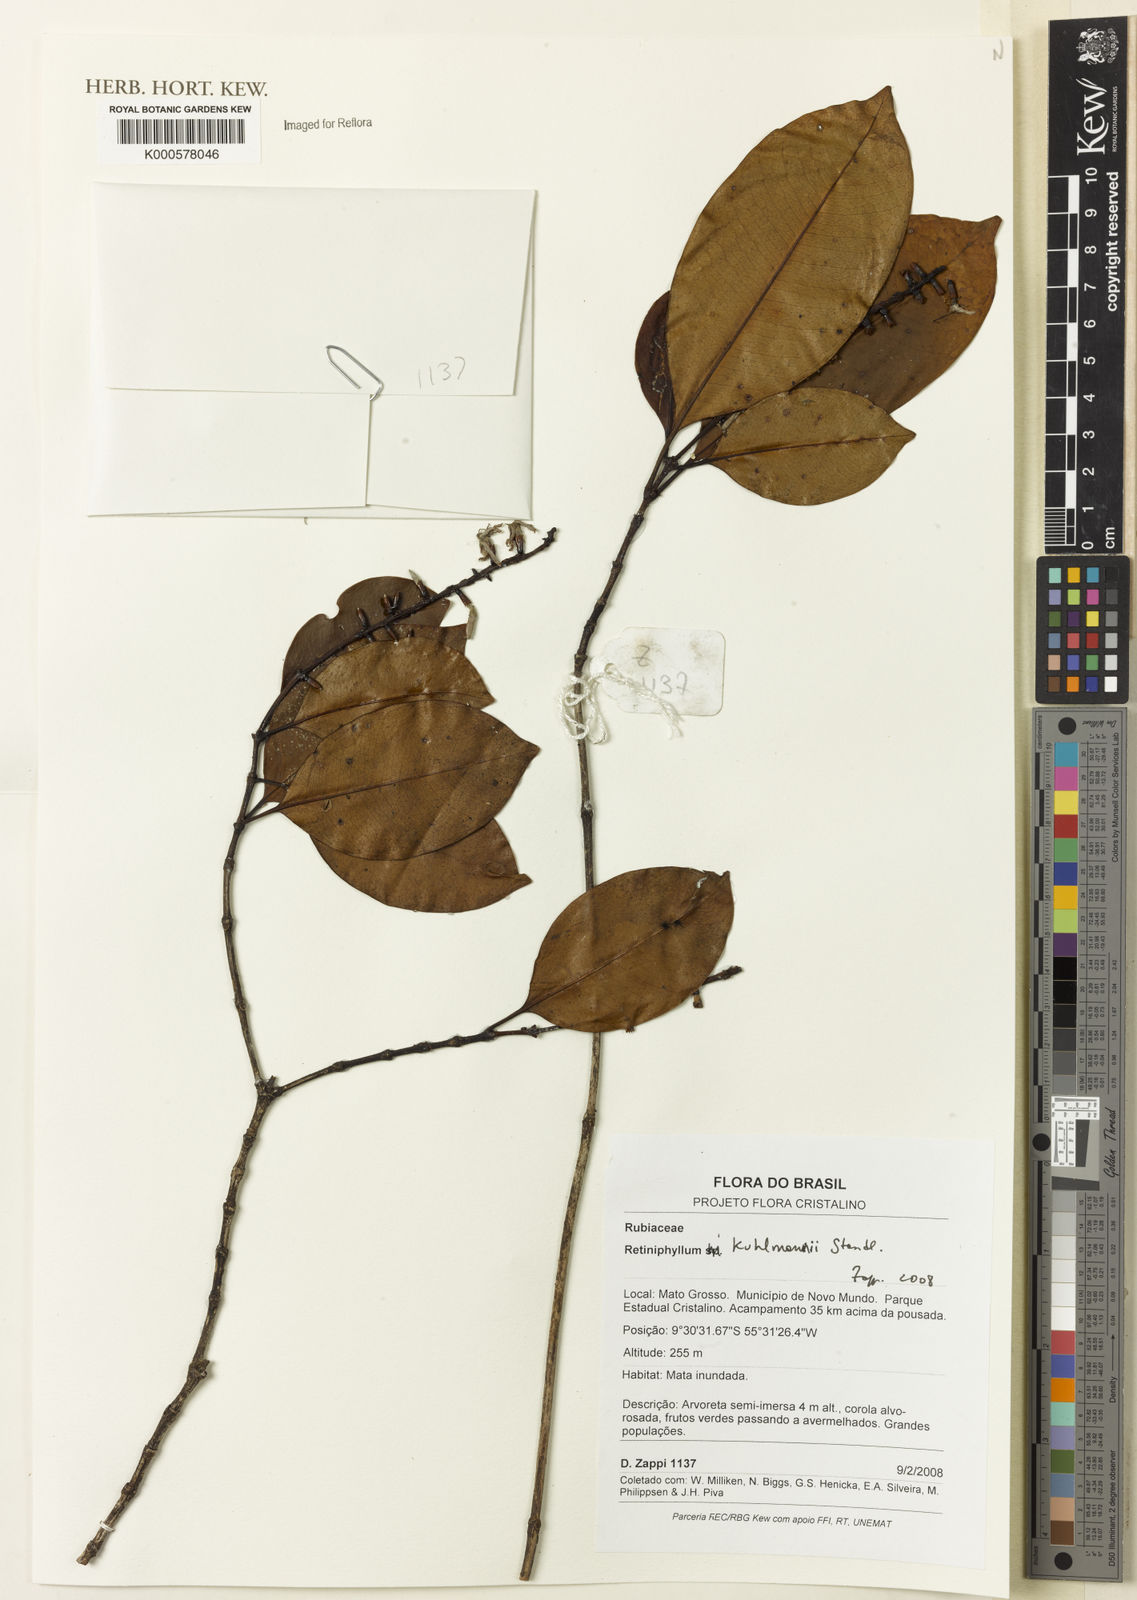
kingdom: Plantae
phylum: Tracheophyta
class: Magnoliopsida
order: Gentianales
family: Rubiaceae
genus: Retiniphyllum
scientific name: Retiniphyllum kuhlmannii
